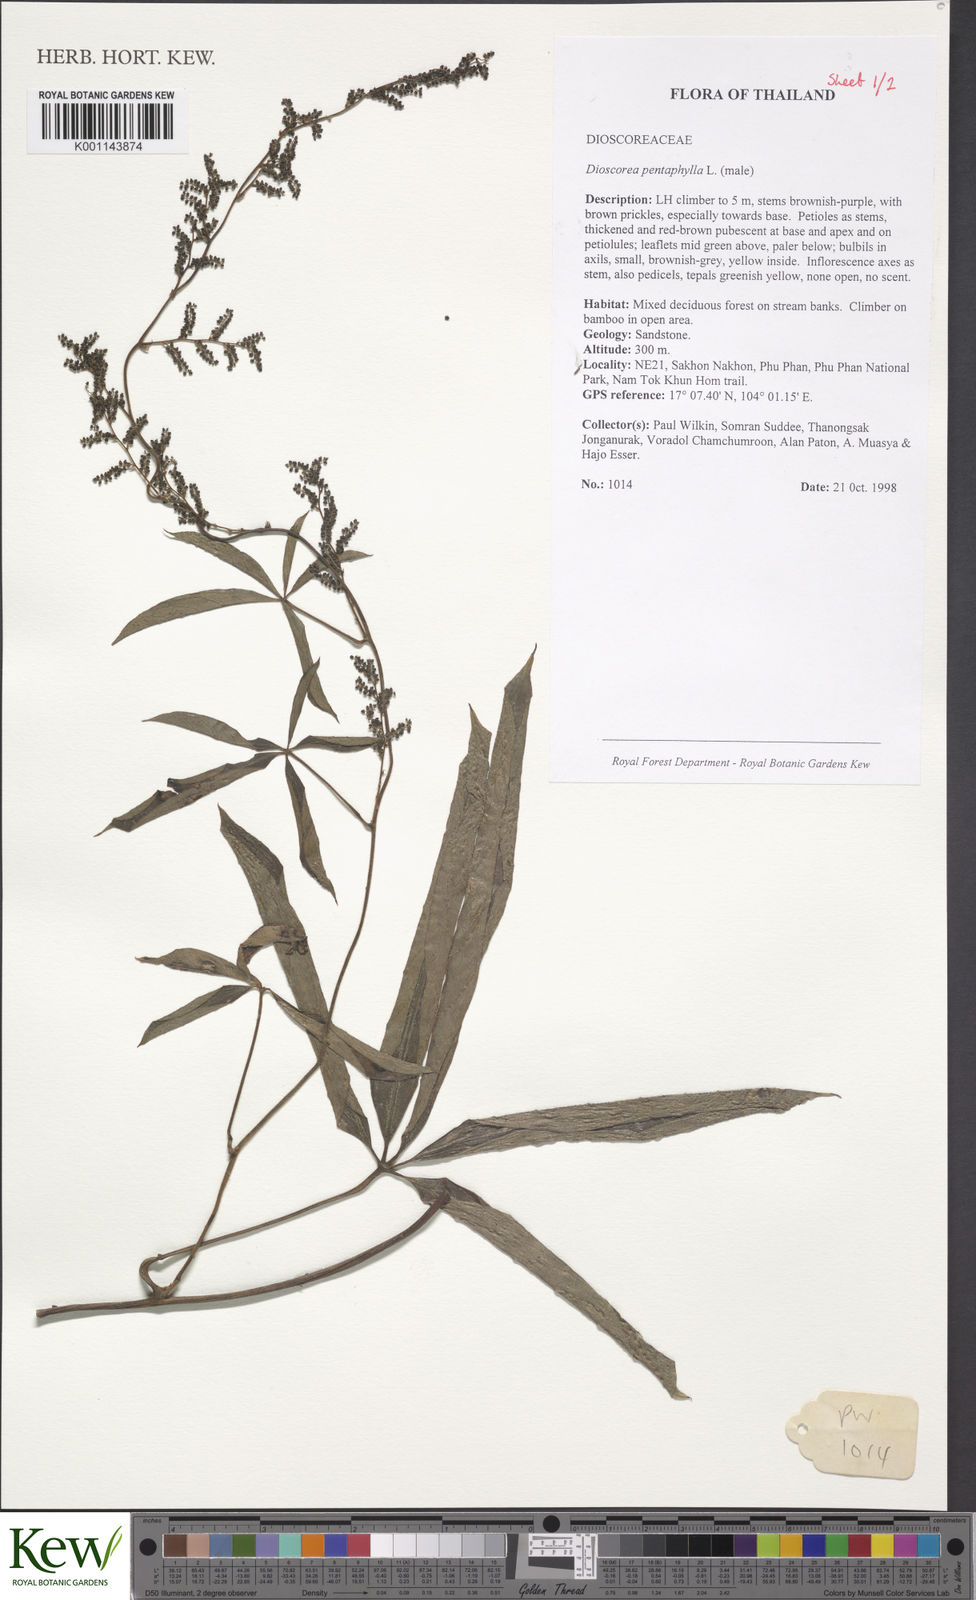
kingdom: Plantae
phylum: Tracheophyta
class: Liliopsida
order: Dioscoreales
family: Dioscoreaceae
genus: Dioscorea
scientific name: Dioscorea pentaphylla
